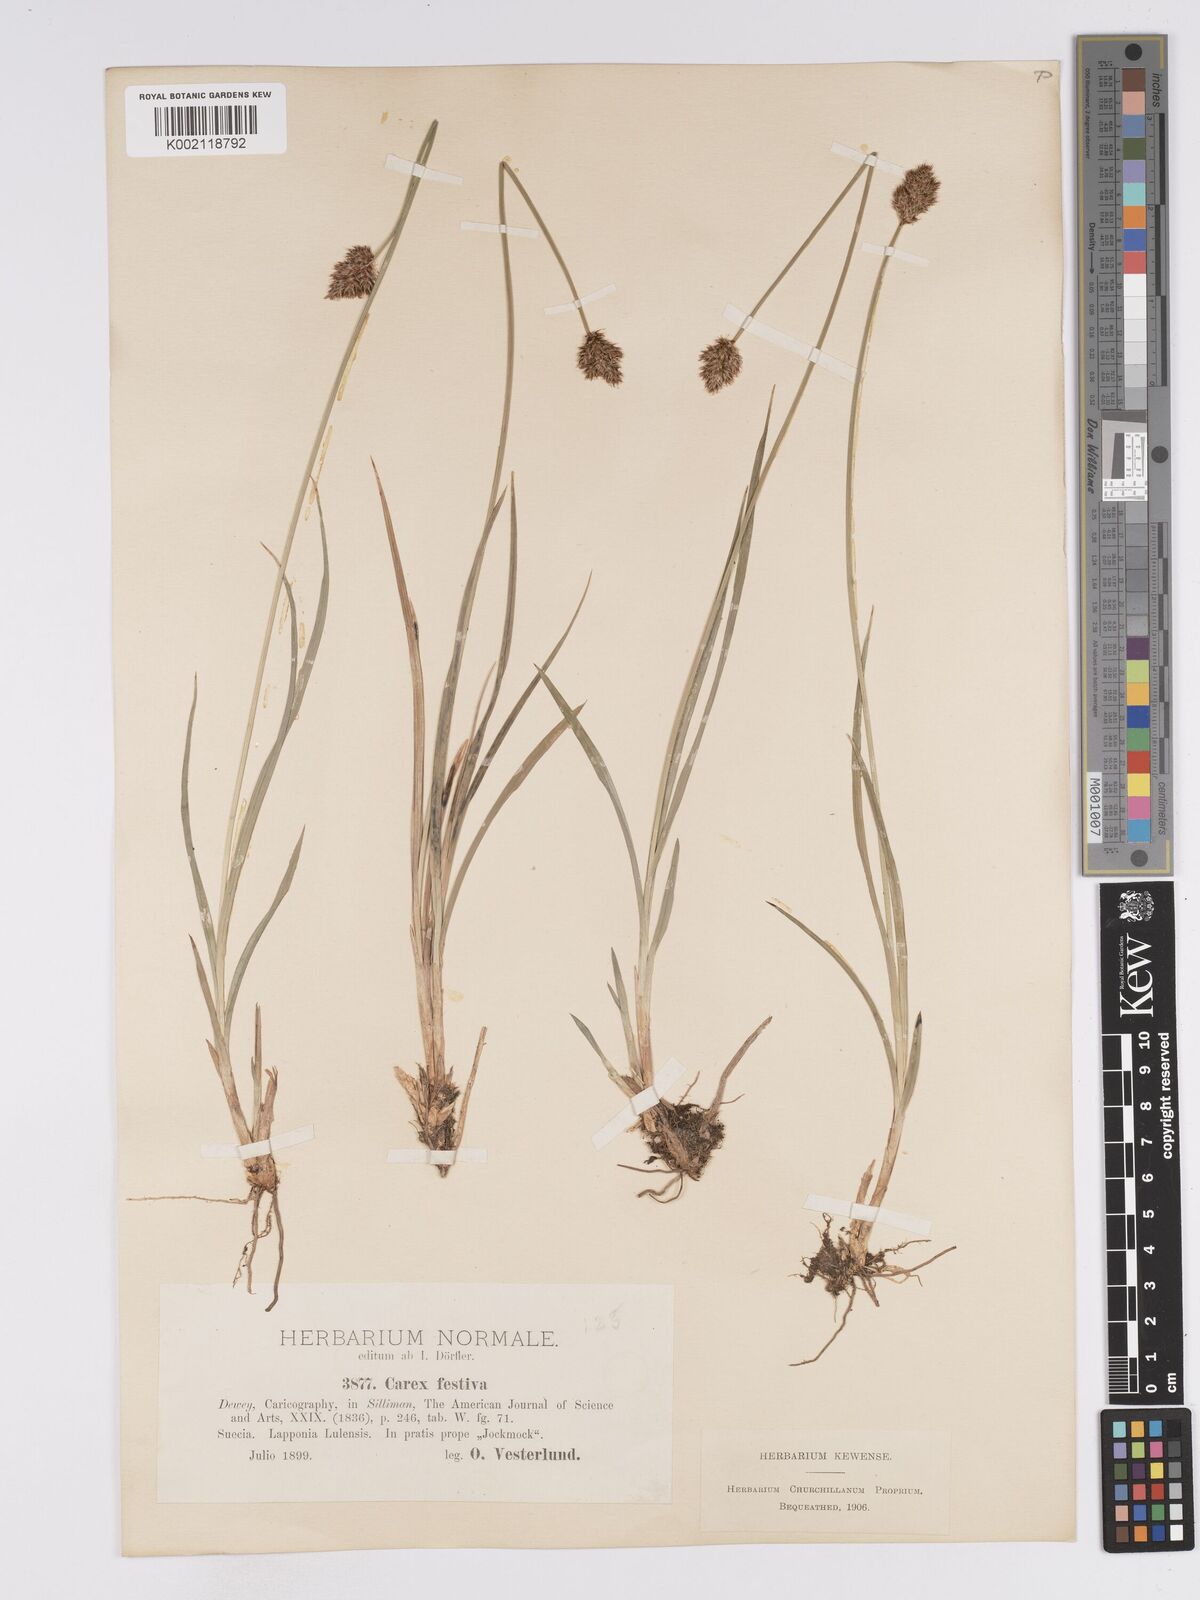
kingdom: Plantae
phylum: Tracheophyta
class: Liliopsida
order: Poales
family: Cyperaceae
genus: Carex
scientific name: Carex macloviana
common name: Falkland island sedge
